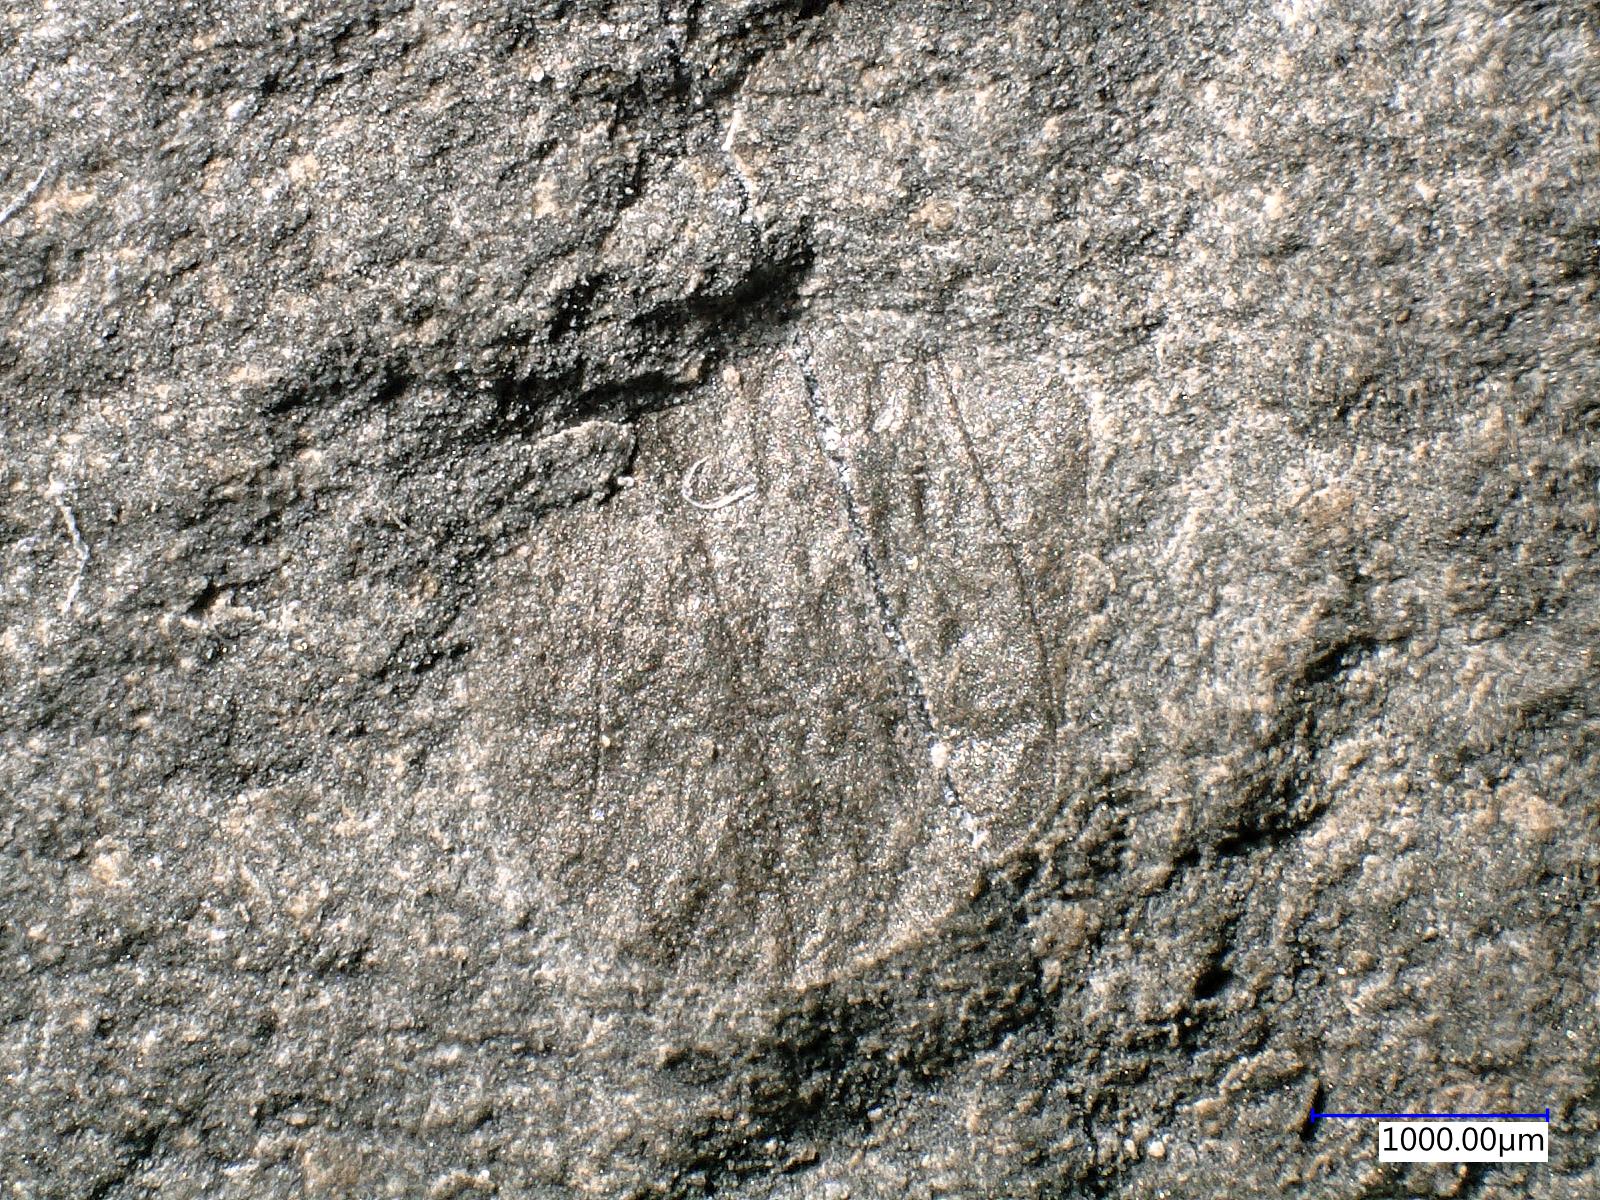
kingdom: Animalia
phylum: Arthropoda
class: Insecta
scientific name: Insecta
